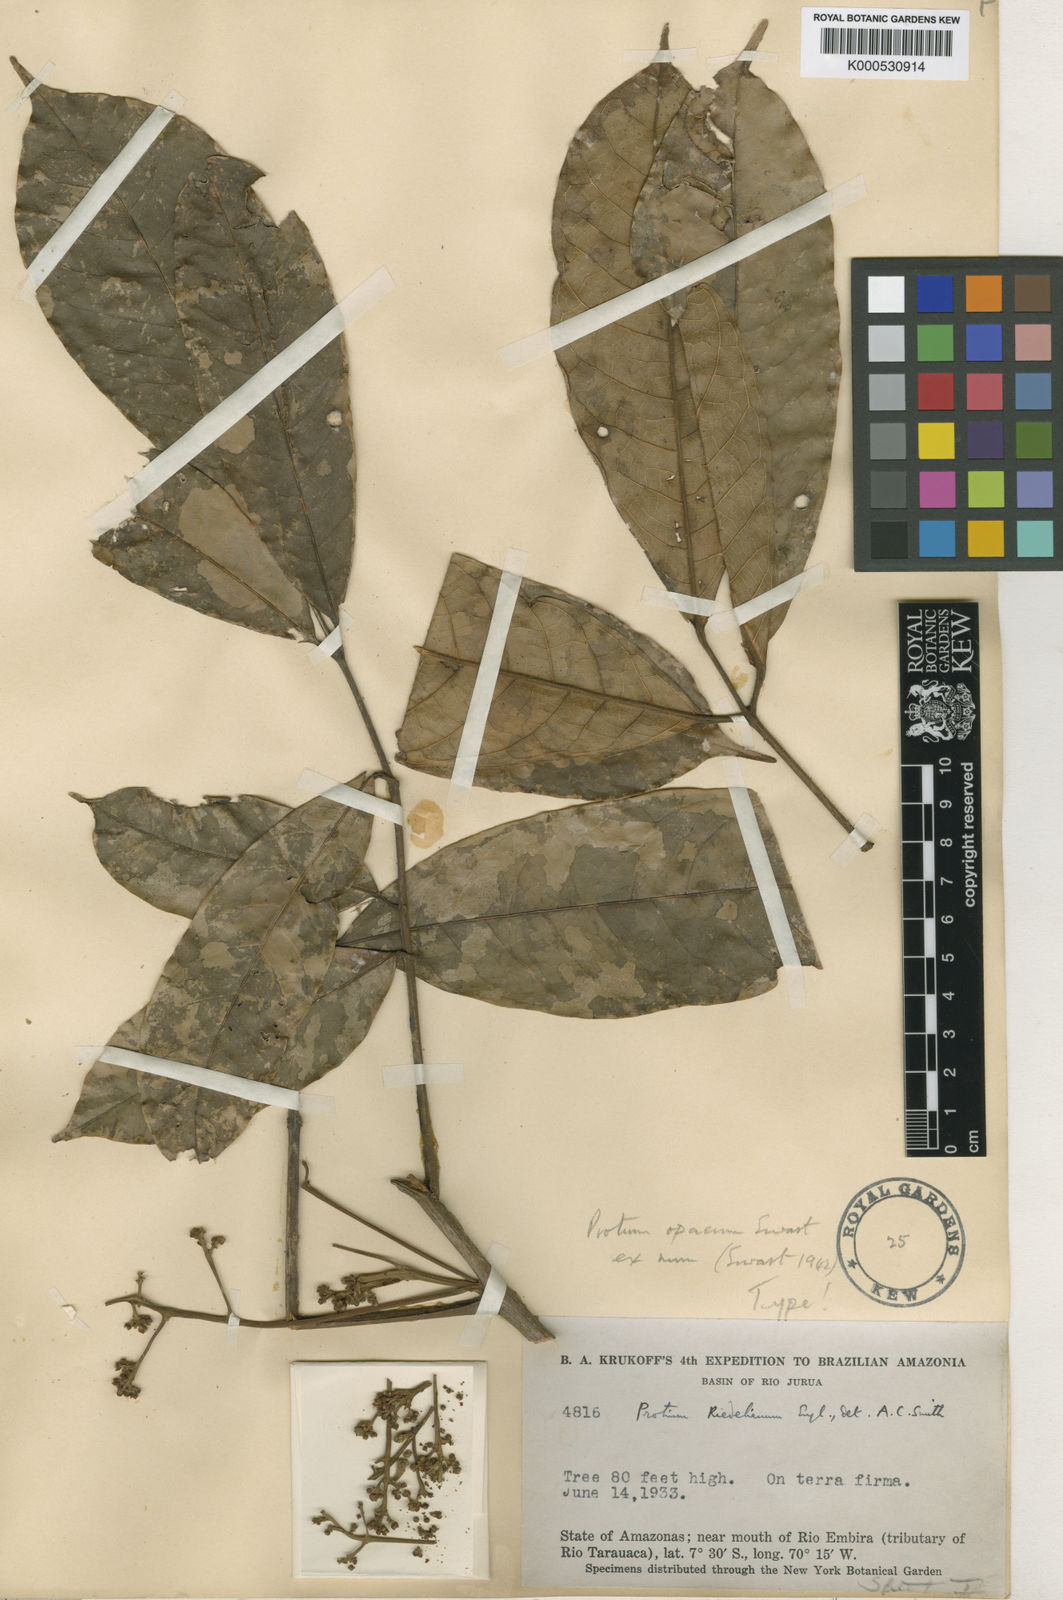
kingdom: Plantae
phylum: Tracheophyta
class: Magnoliopsida
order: Sapindales
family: Burseraceae
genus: Protium
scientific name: Protium opacum
